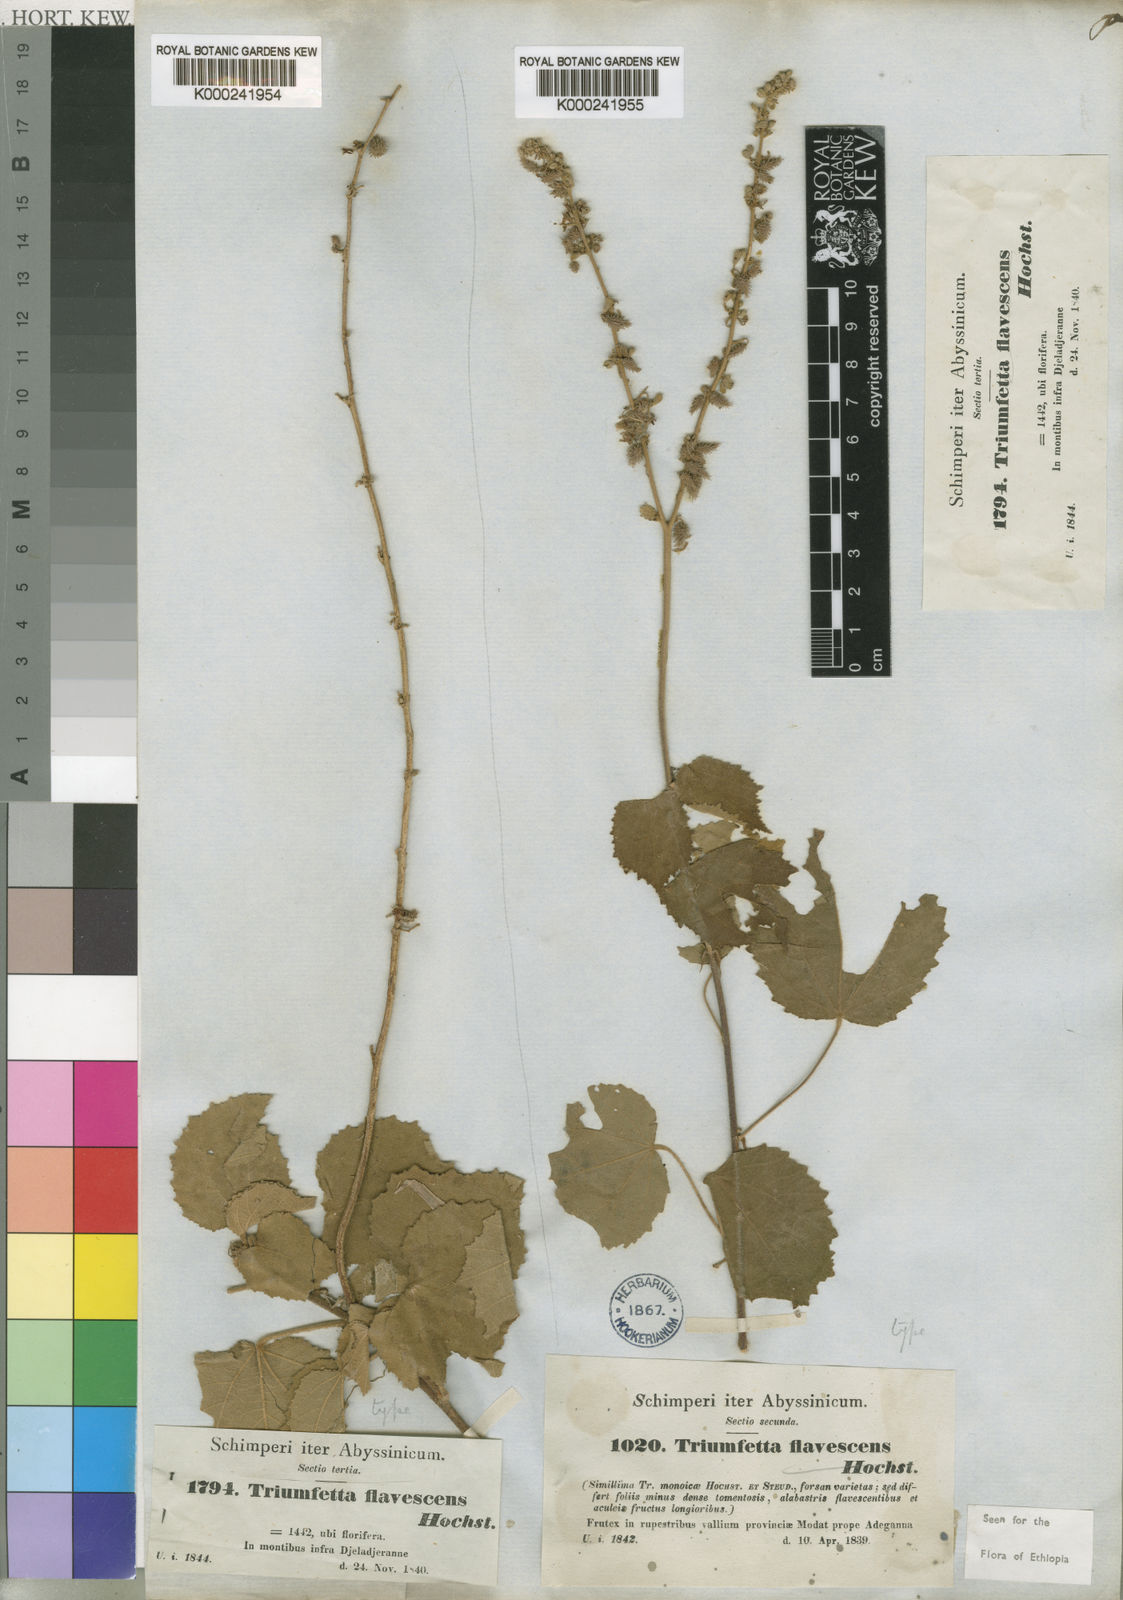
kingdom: Plantae
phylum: Tracheophyta
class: Magnoliopsida
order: Malvales
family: Malvaceae
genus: Triumfetta
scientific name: Triumfetta flavescens
